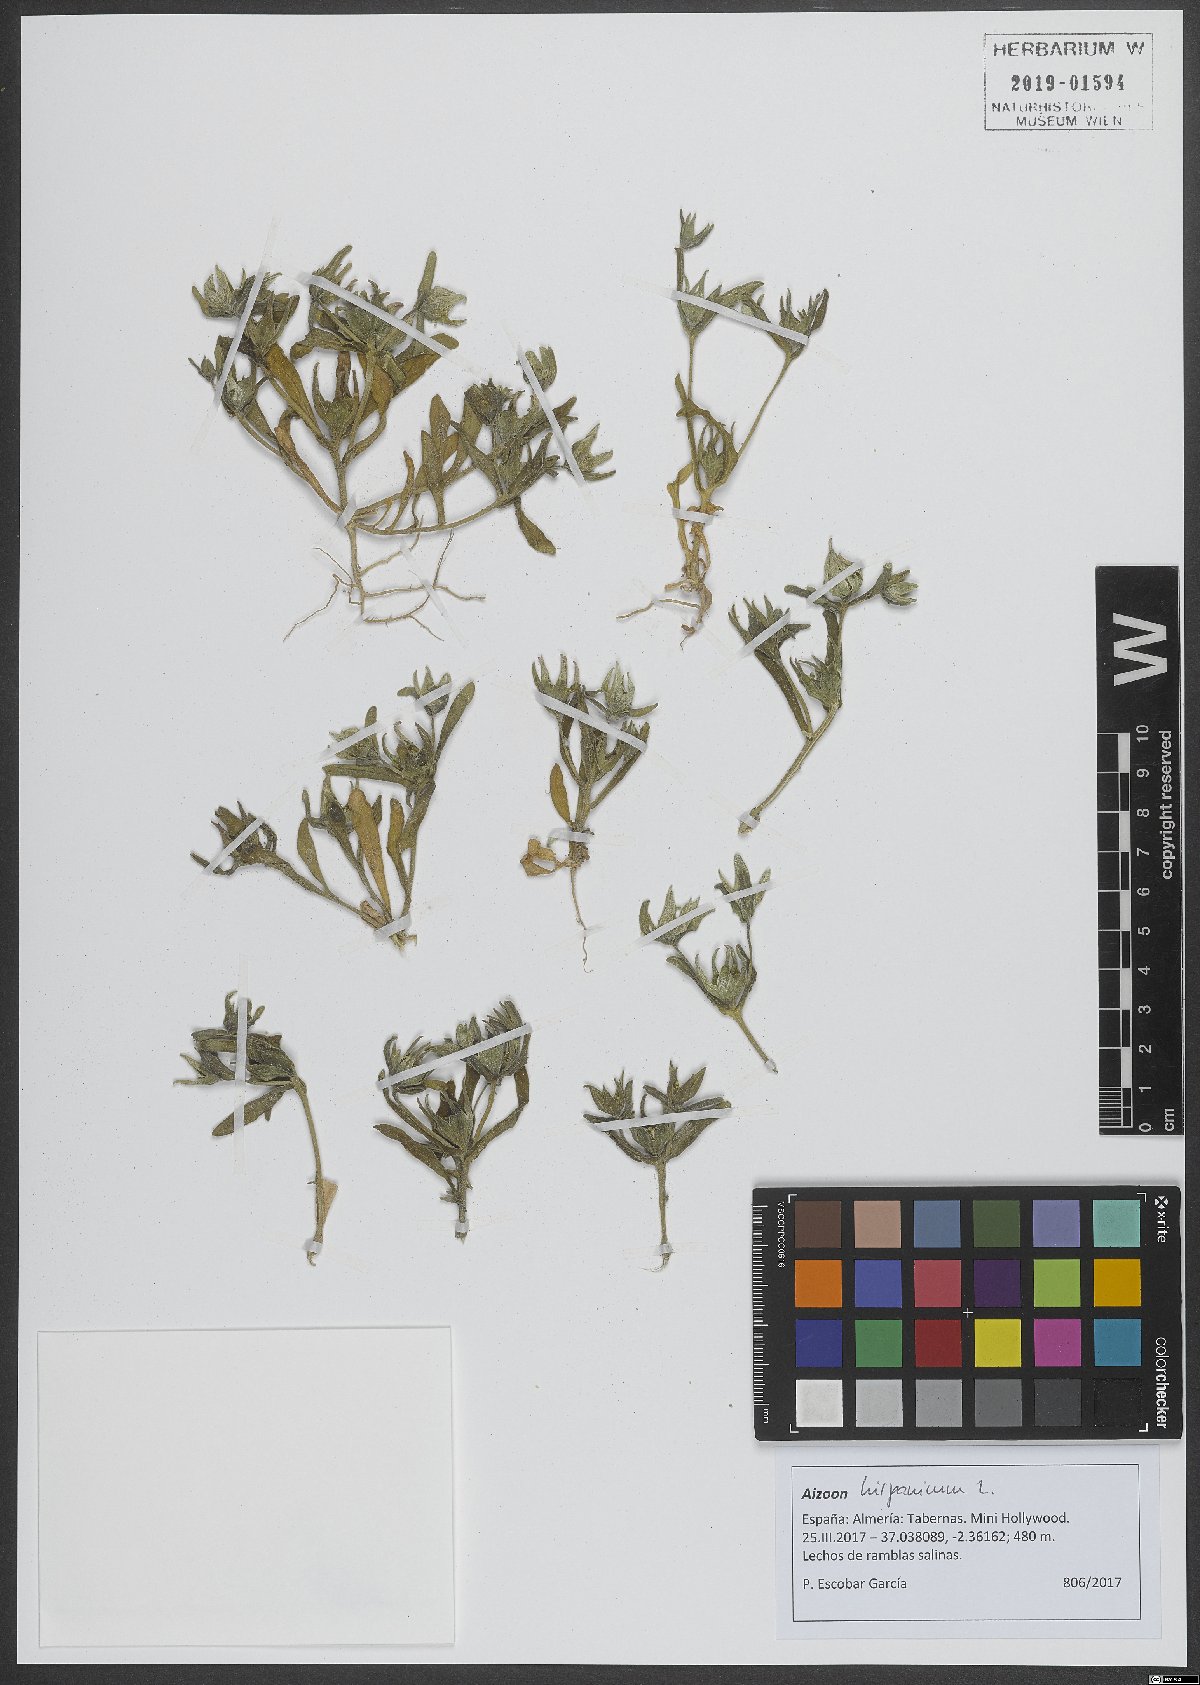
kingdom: Plantae
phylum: Tracheophyta
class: Magnoliopsida
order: Caryophyllales
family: Aizoaceae
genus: Aizoanthemopsis
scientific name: Aizoanthemopsis hispanica
